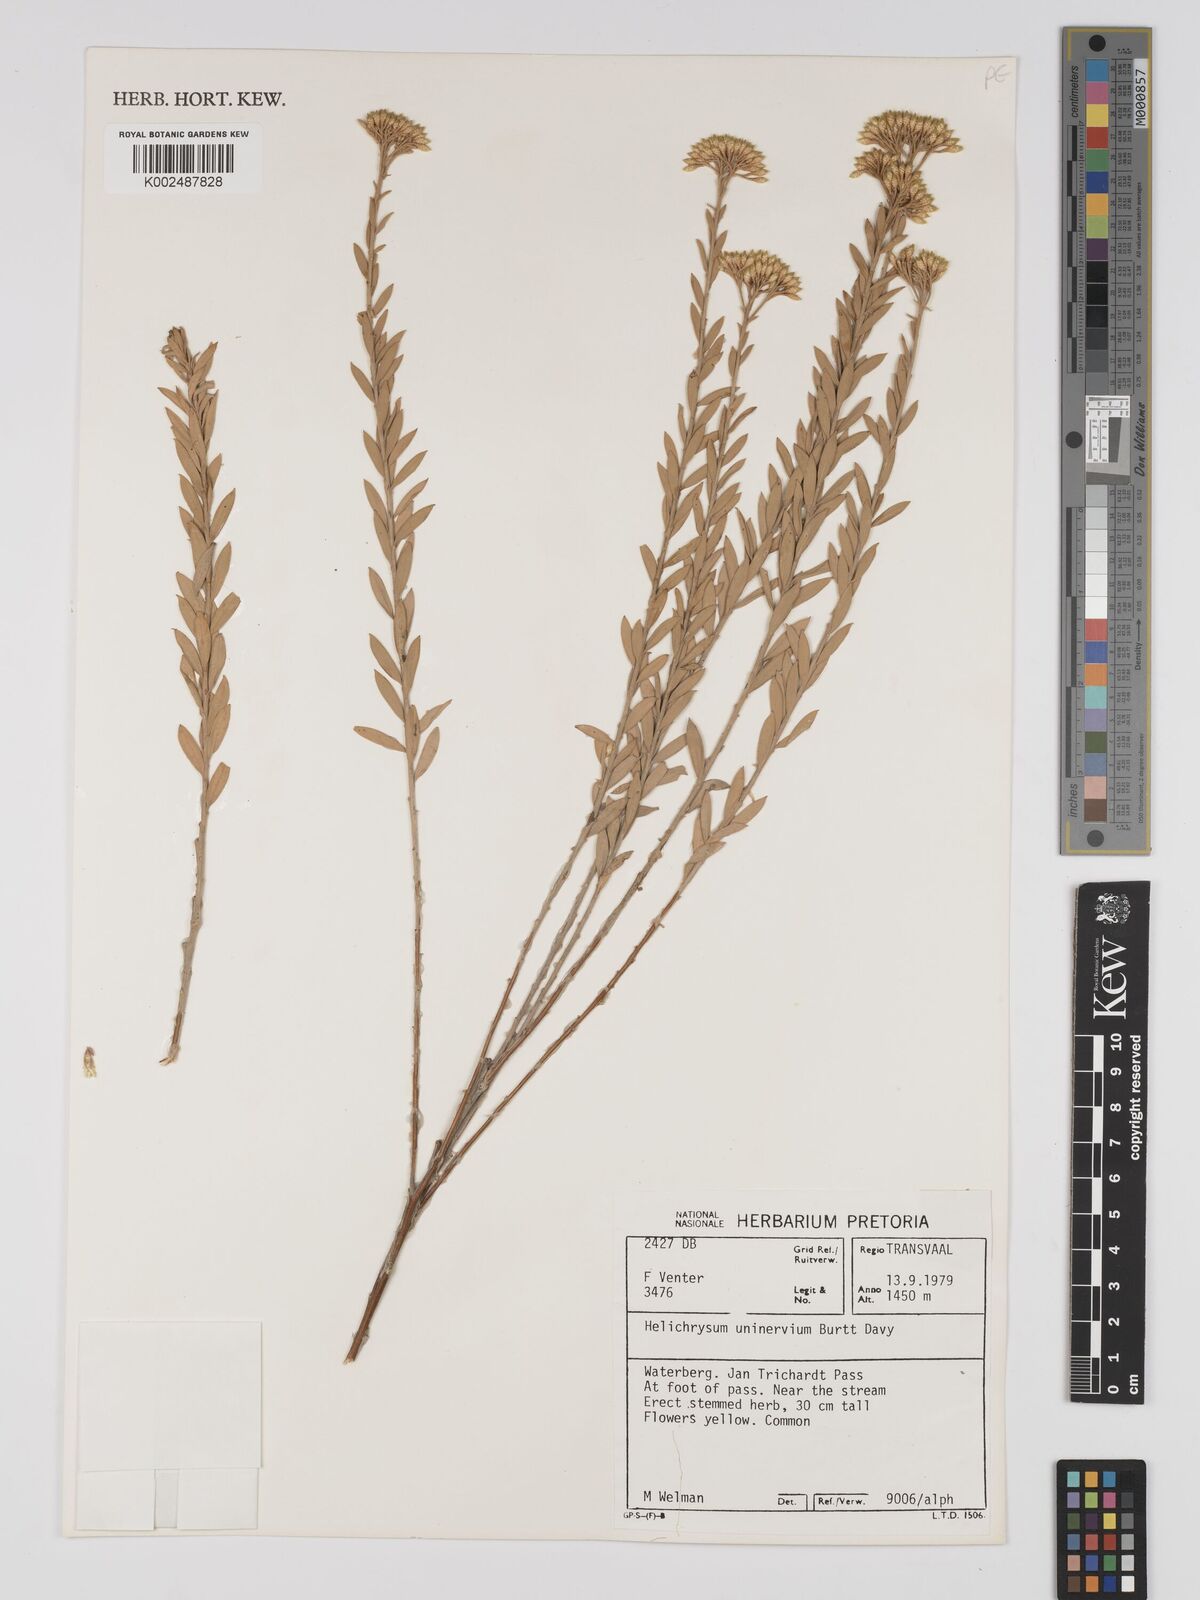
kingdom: Plantae
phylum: Tracheophyta
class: Magnoliopsida
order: Asterales
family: Asteraceae
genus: Helichrysum
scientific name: Helichrysum uninervium
